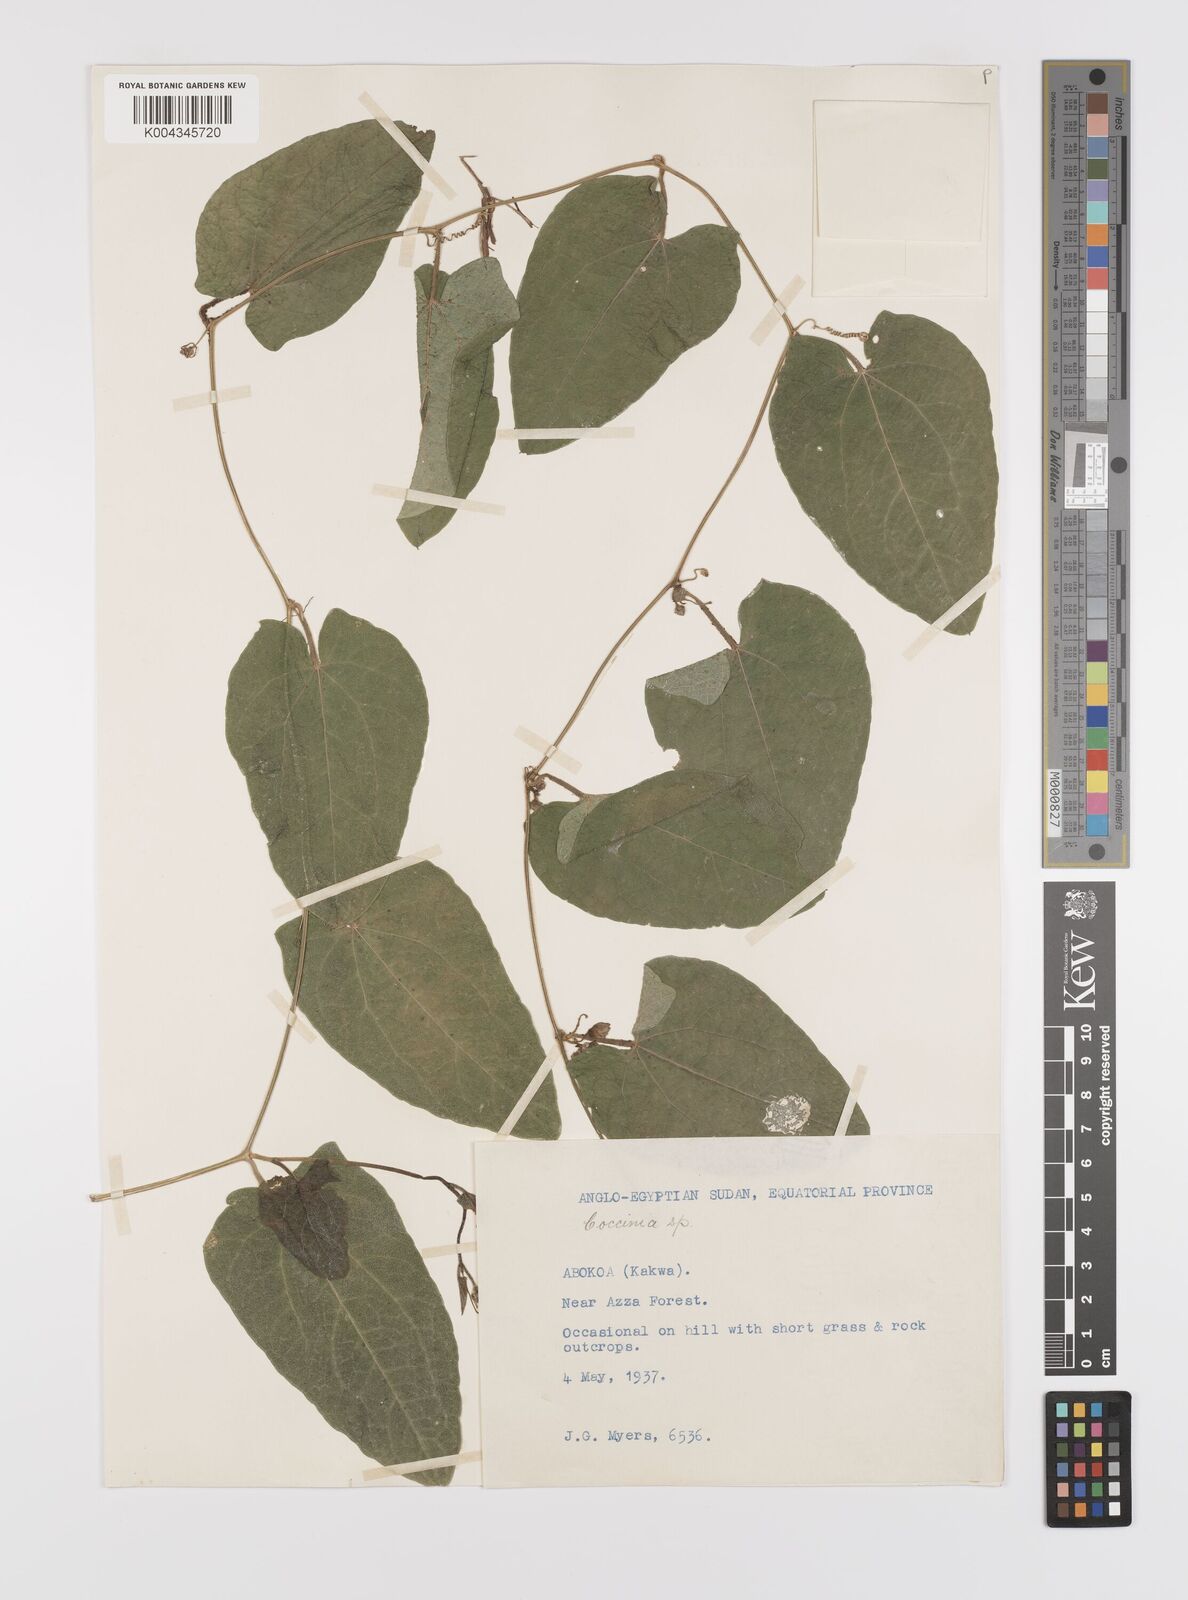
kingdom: Plantae
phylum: Tracheophyta
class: Magnoliopsida
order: Cucurbitales
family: Cucurbitaceae
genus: Coccinia
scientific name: Coccinia adoensis
